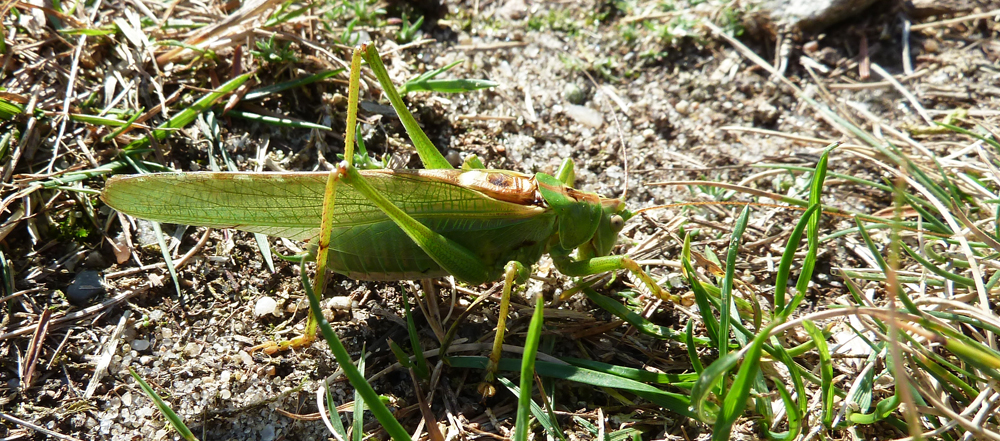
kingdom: Animalia
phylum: Arthropoda
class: Insecta
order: Orthoptera
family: Tettigoniidae
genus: Tettigonia
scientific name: Tettigonia viridissima
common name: Great green bush-cricket
